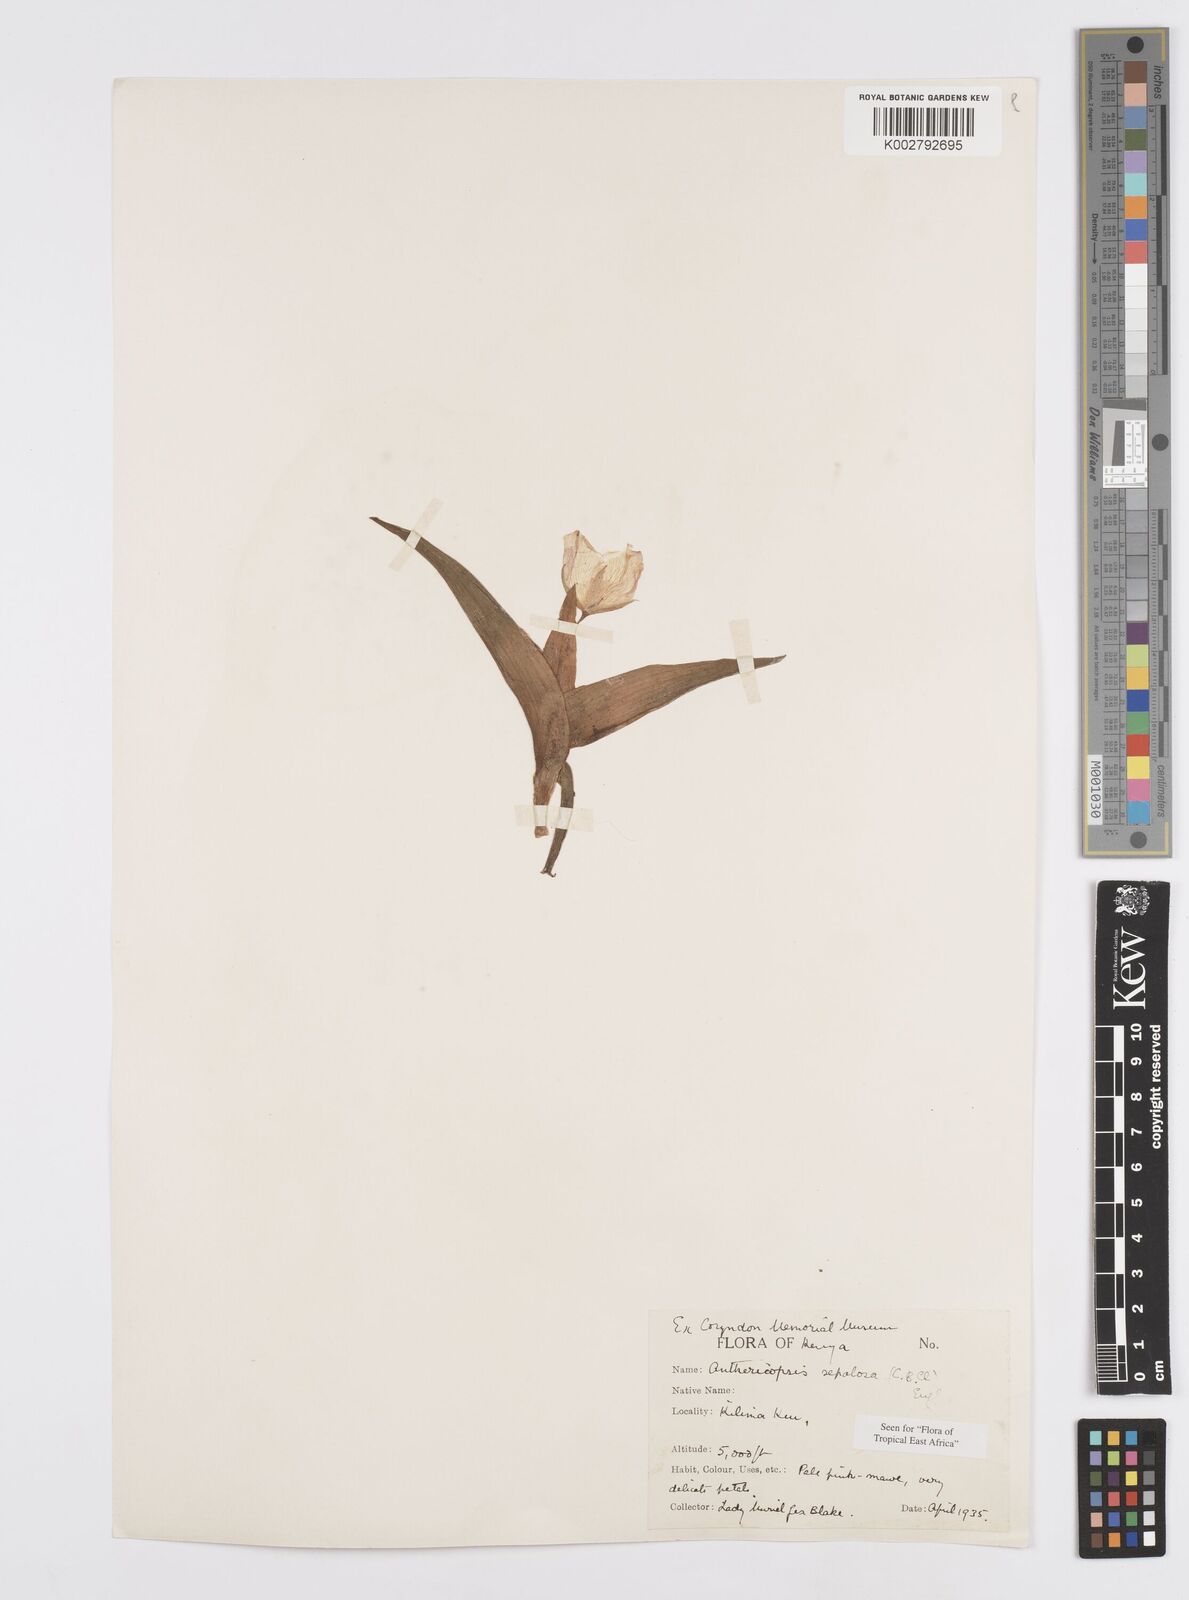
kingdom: Plantae
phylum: Tracheophyta
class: Liliopsida
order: Commelinales
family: Commelinaceae
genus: Anthericopsis
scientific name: Anthericopsis sepalosa
